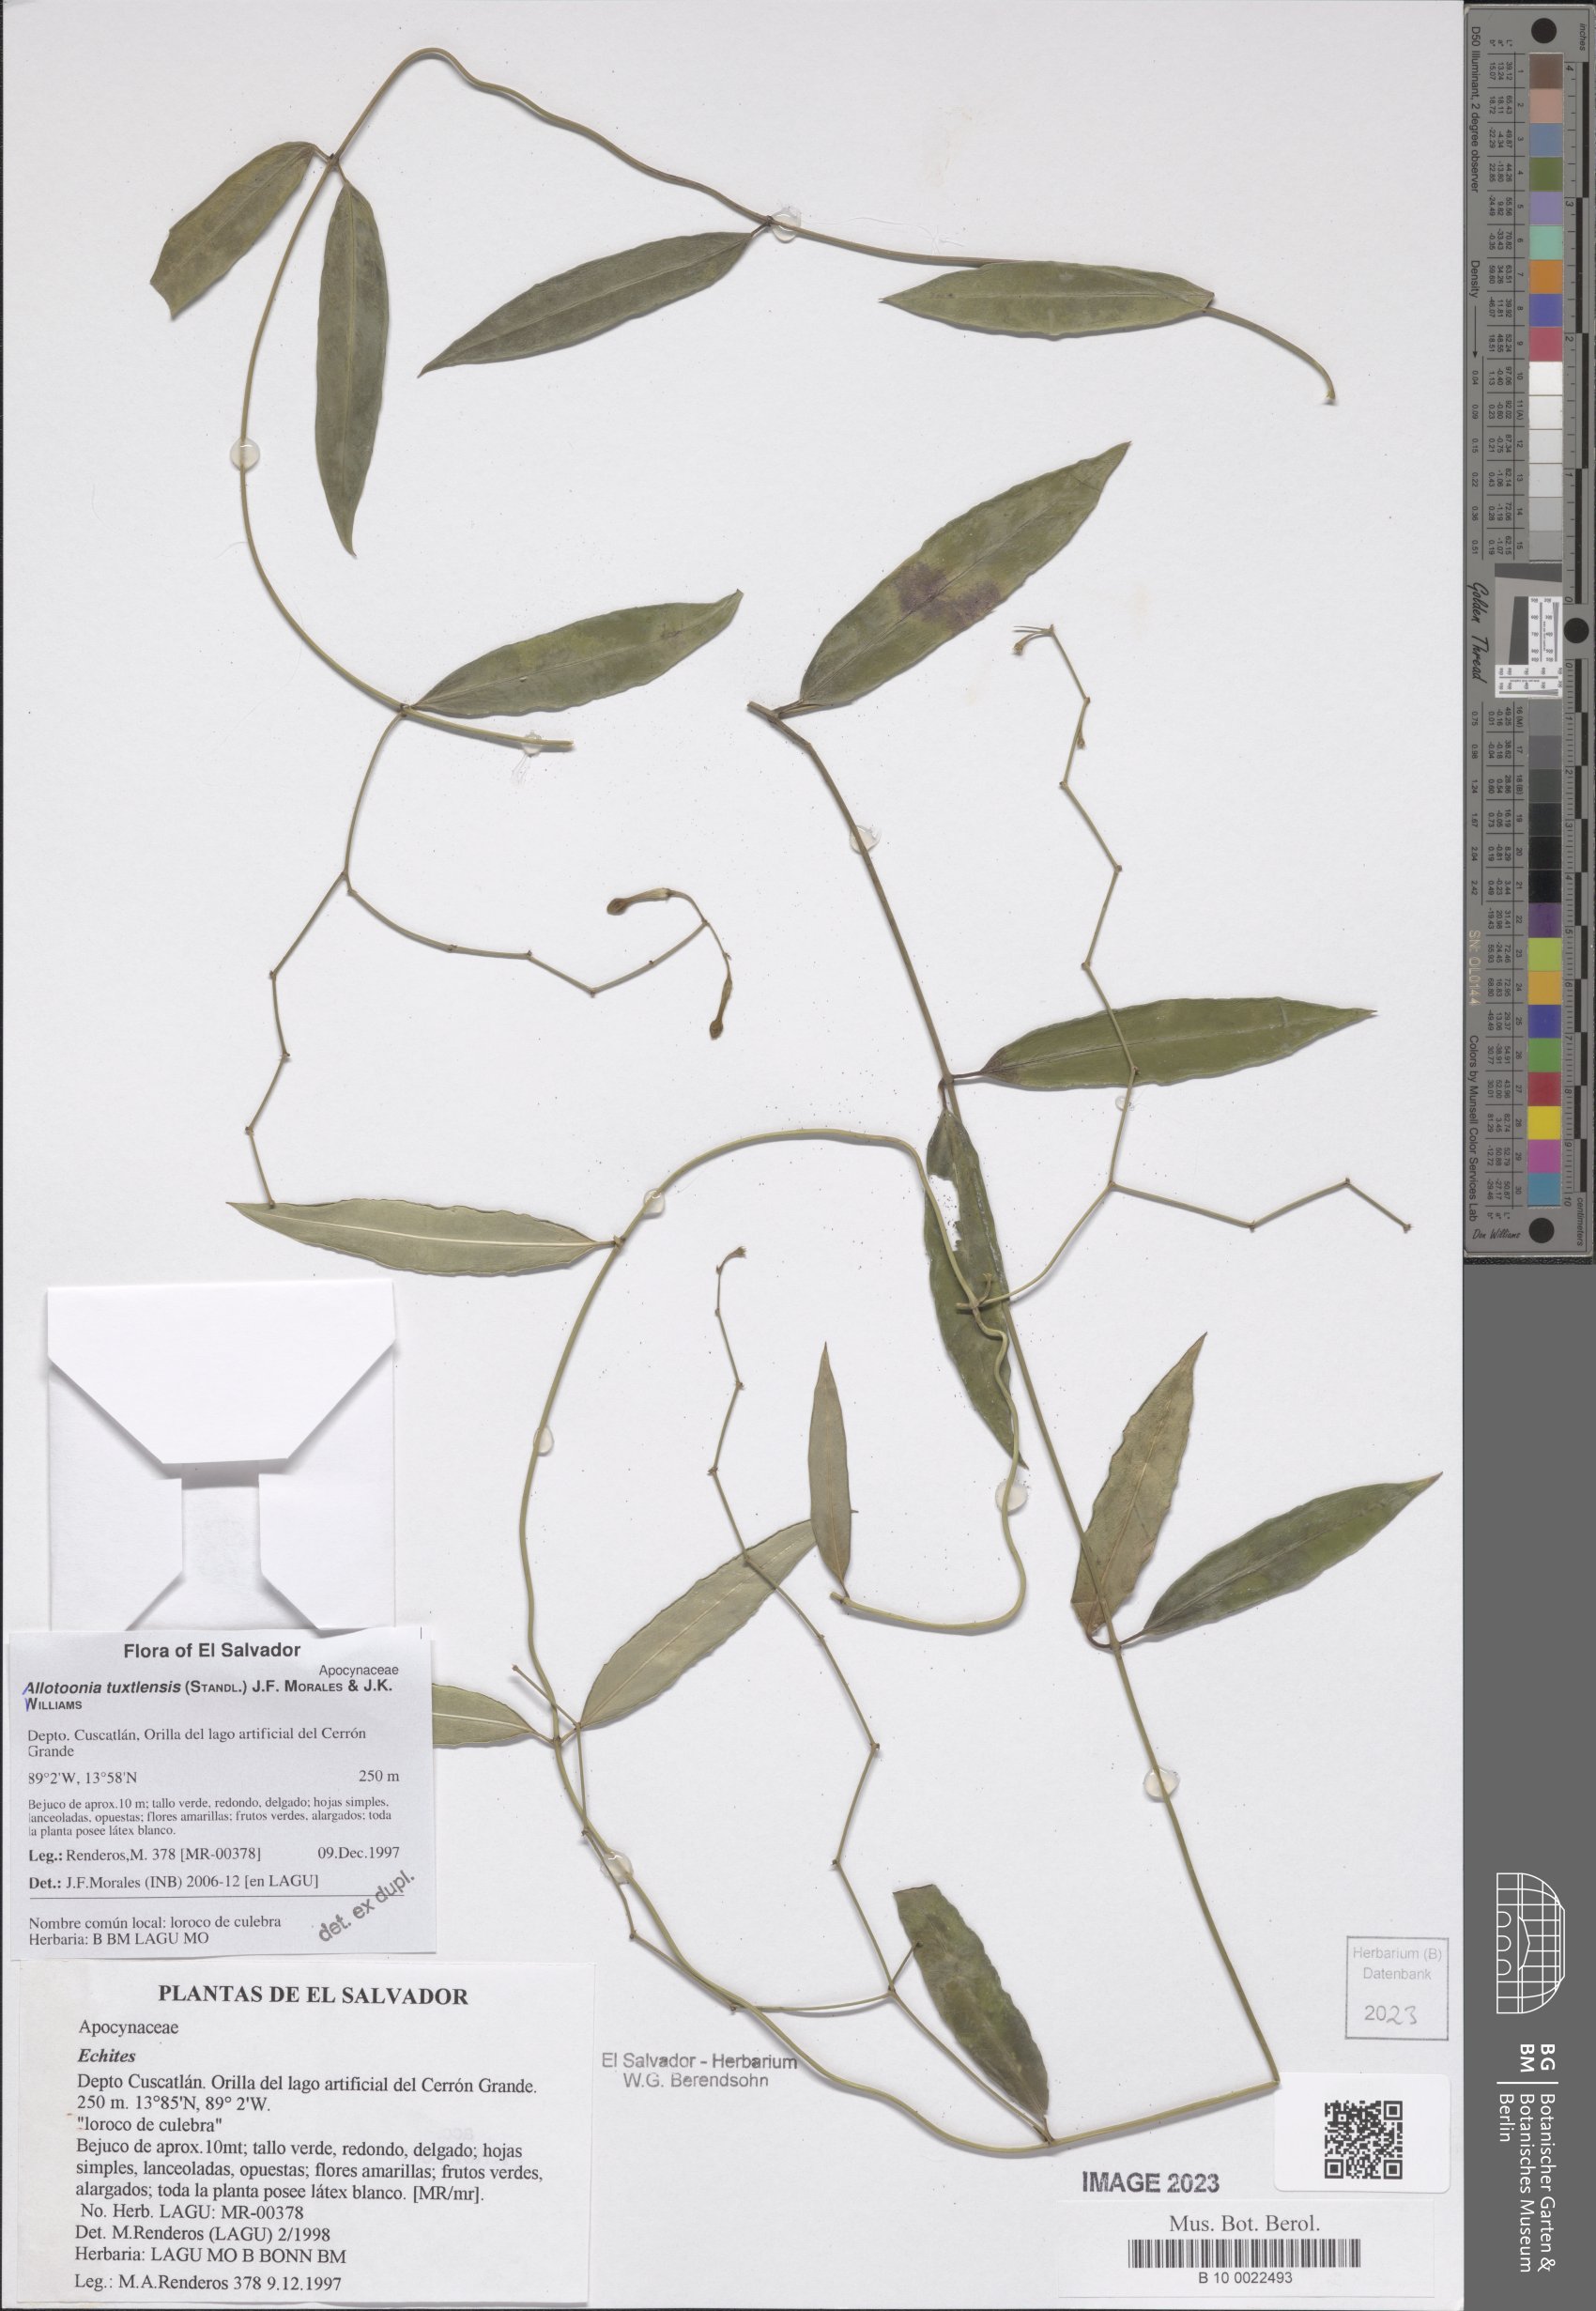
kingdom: Plantae
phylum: Tracheophyta
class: Magnoliopsida
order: Gentianales
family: Apocynaceae
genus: Echites
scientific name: Echites tuxtlensis
